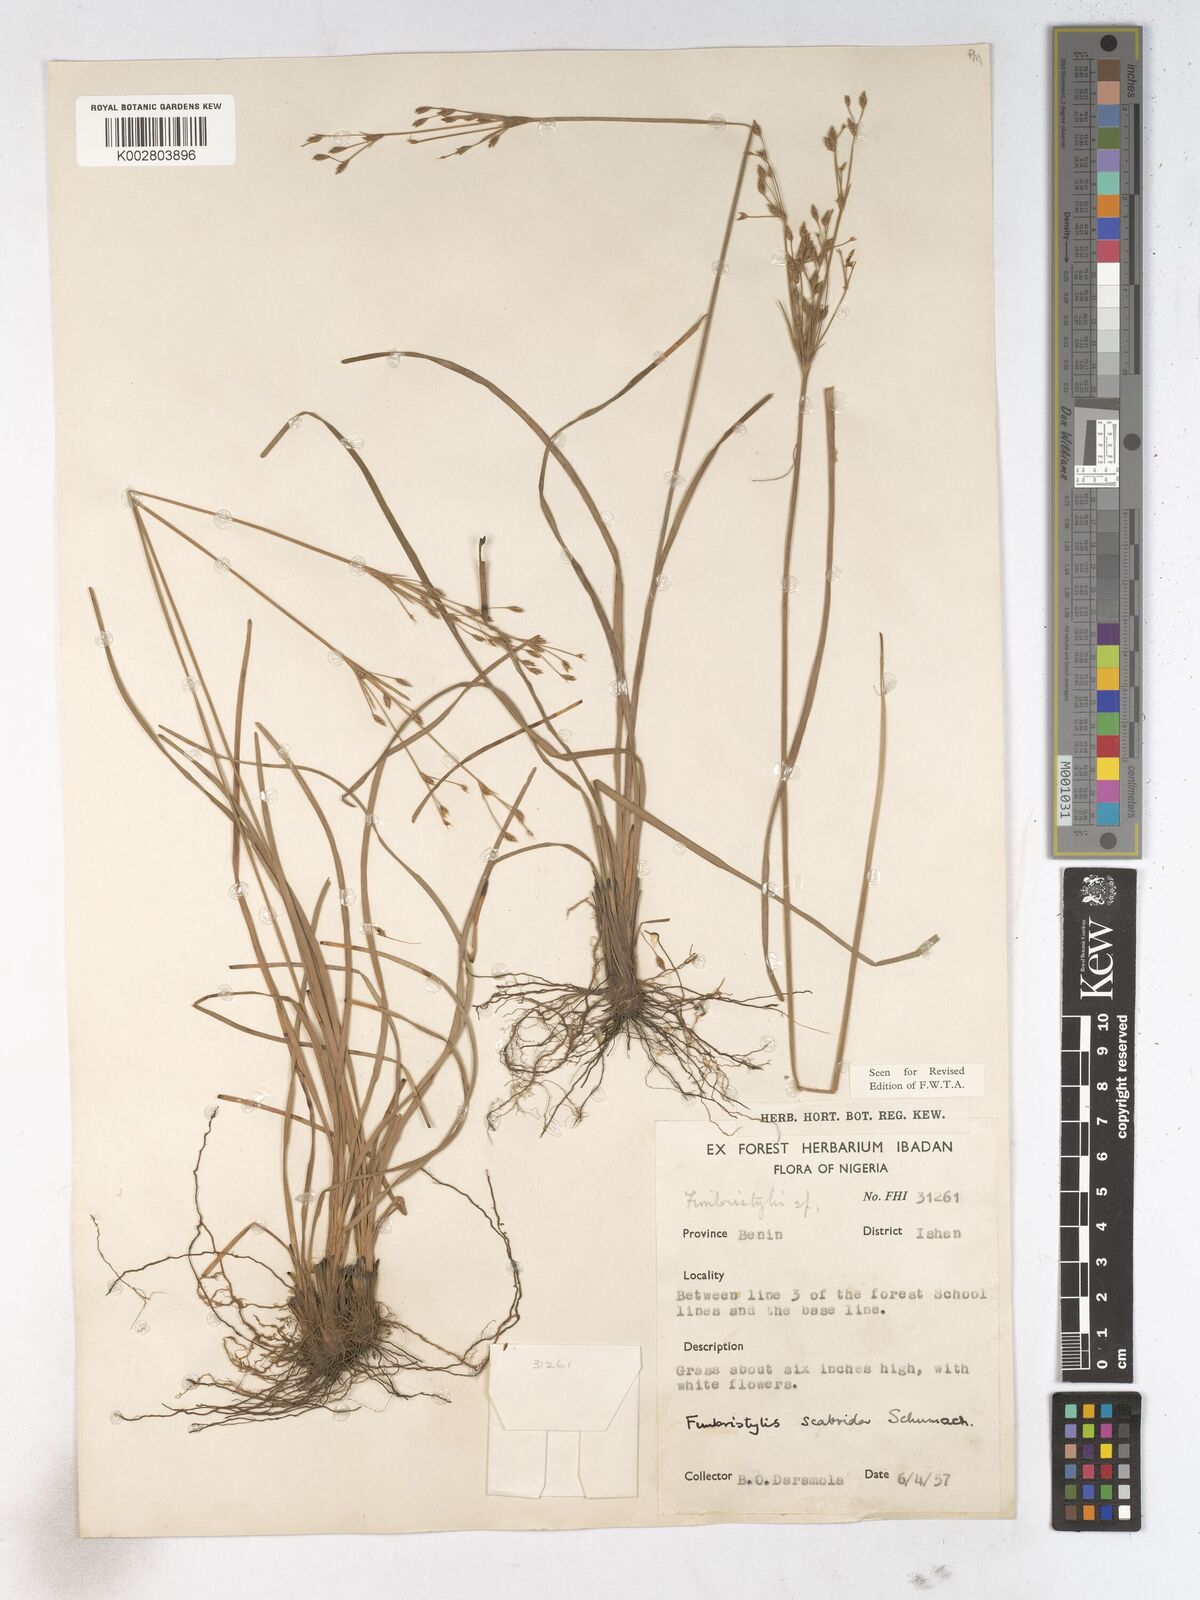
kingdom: Plantae
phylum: Tracheophyta
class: Liliopsida
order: Poales
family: Cyperaceae
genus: Fimbristylis
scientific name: Fimbristylis scabrida
